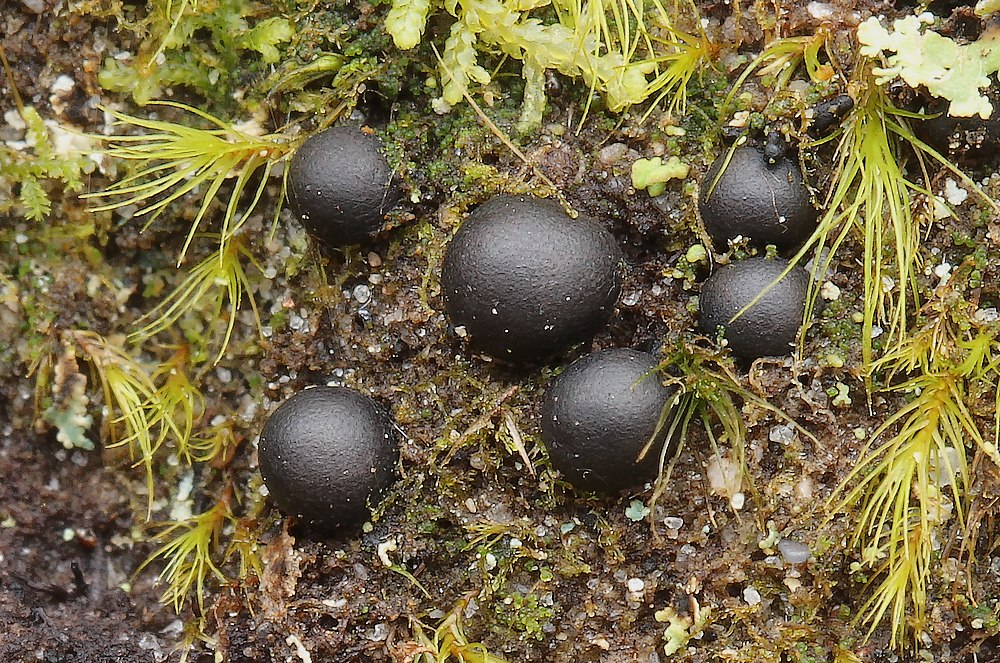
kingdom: Fungi
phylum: Ascomycota
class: Dothideomycetes
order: Mytilinidiales
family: Gloniaceae
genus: Cenococcum
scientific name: Cenococcum geophilum
